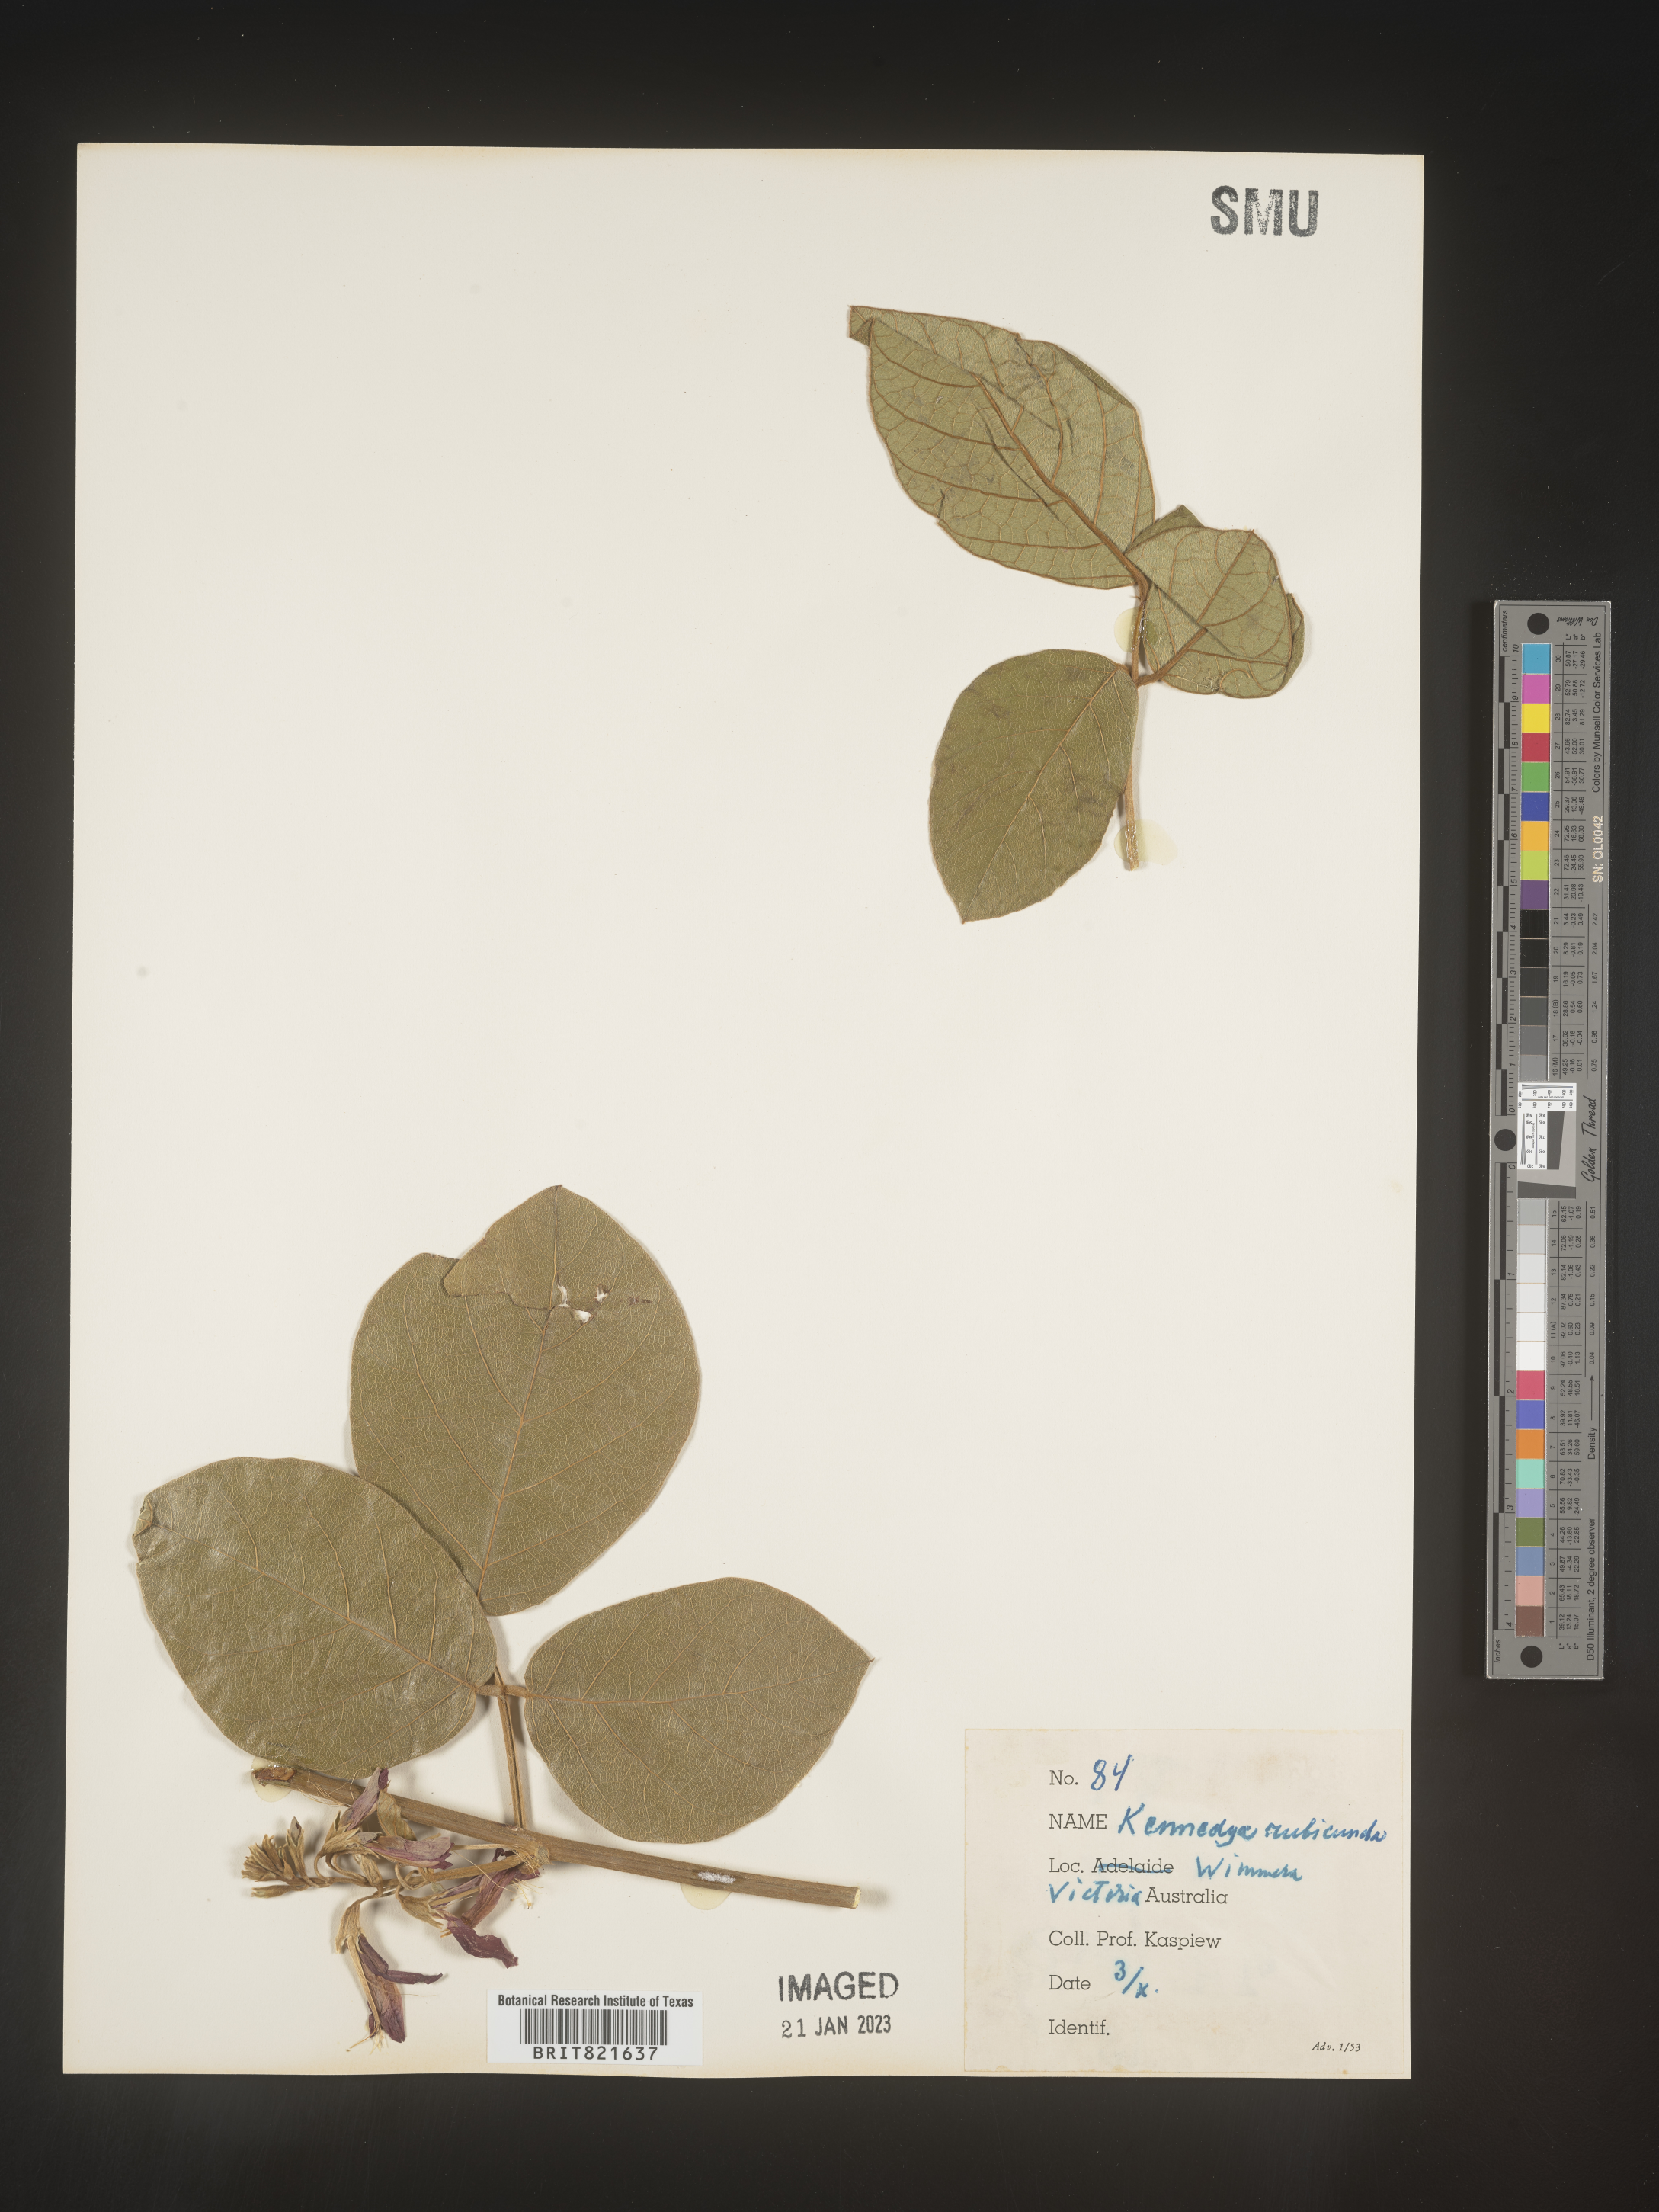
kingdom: Plantae
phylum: Tracheophyta
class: Magnoliopsida
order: Fabales
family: Fabaceae
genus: Kennedya
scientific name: Kennedya
